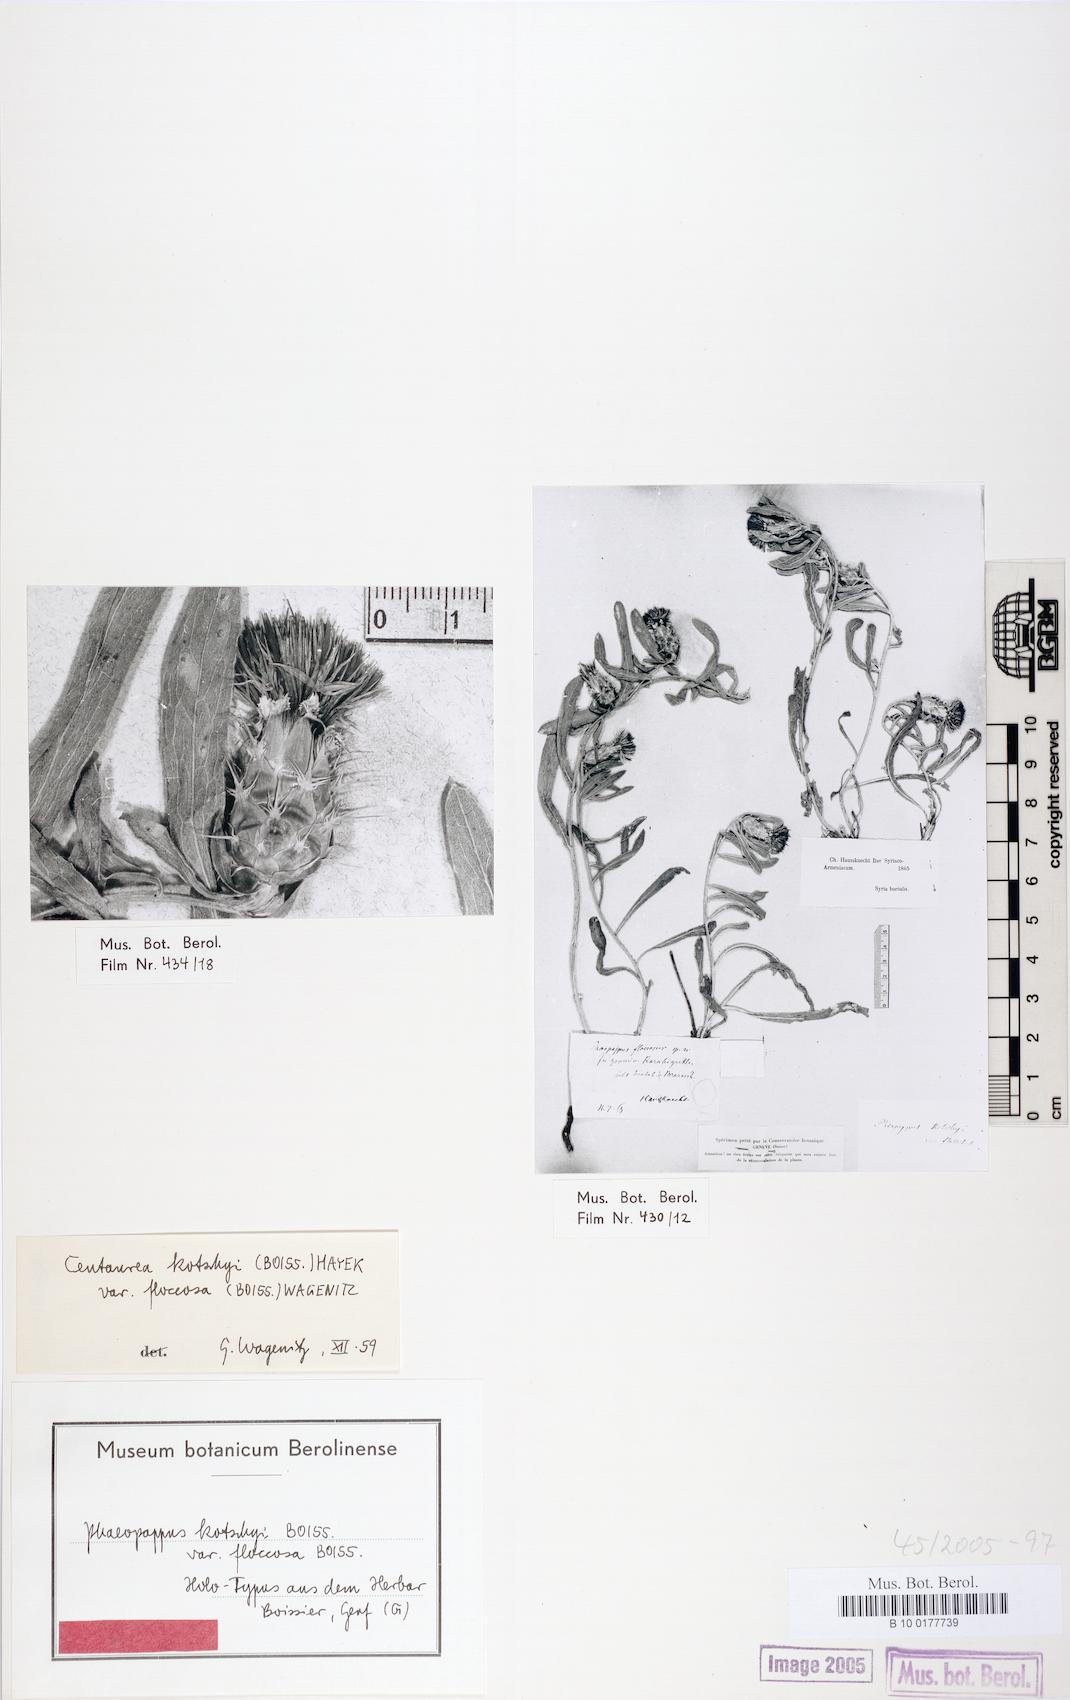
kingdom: Plantae
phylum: Tracheophyta
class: Magnoliopsida
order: Asterales
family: Asteraceae
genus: Centaurea
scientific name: Centaurea kotschyi
